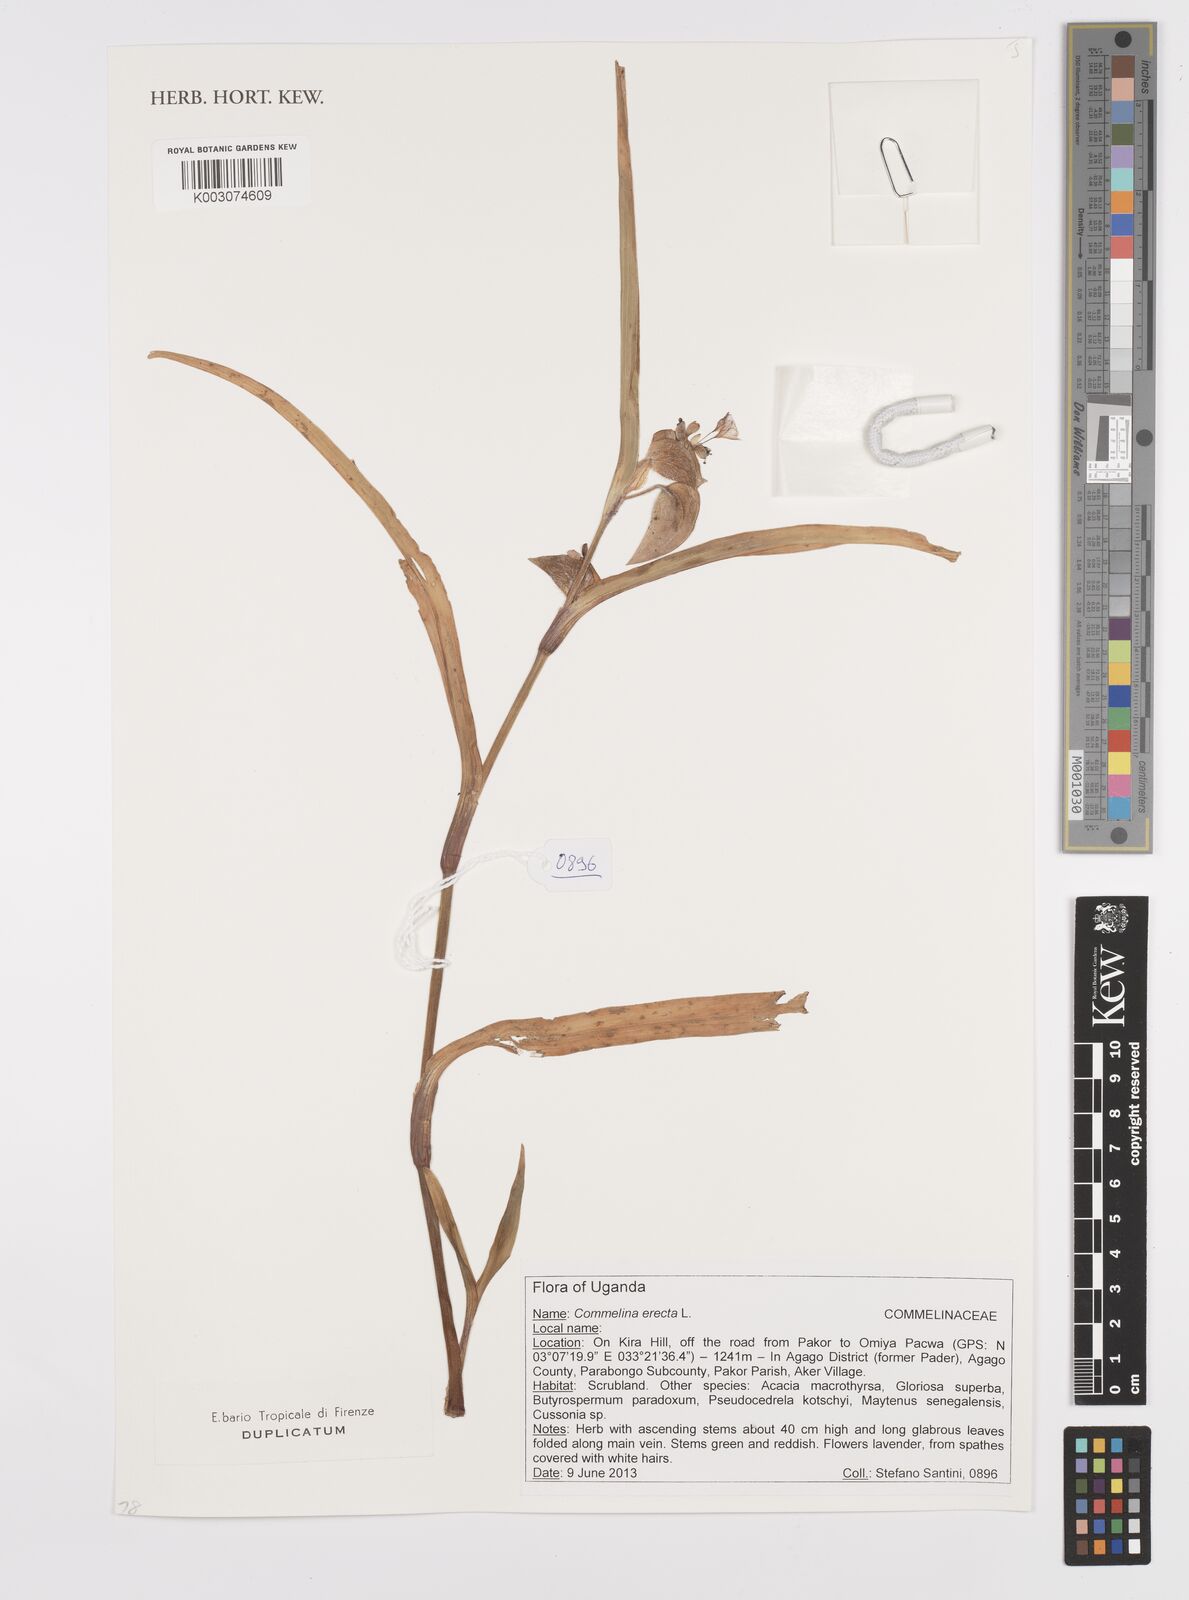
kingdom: Plantae
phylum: Tracheophyta
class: Liliopsida
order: Commelinales
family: Commelinaceae
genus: Commelina
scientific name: Commelina erecta
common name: Blousel blommetjie
